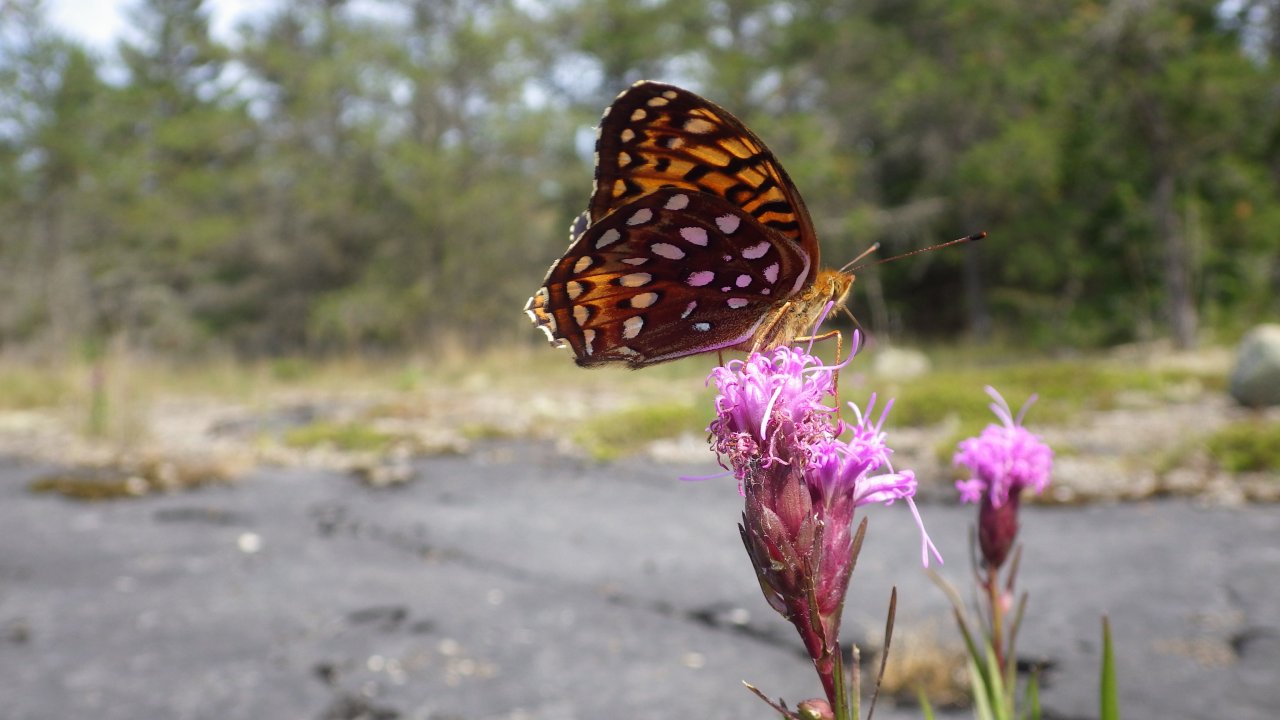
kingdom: Animalia
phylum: Arthropoda
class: Insecta
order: Lepidoptera
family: Nymphalidae
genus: Speyeria
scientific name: Speyeria aphrodite
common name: Aphrodite Fritillary
